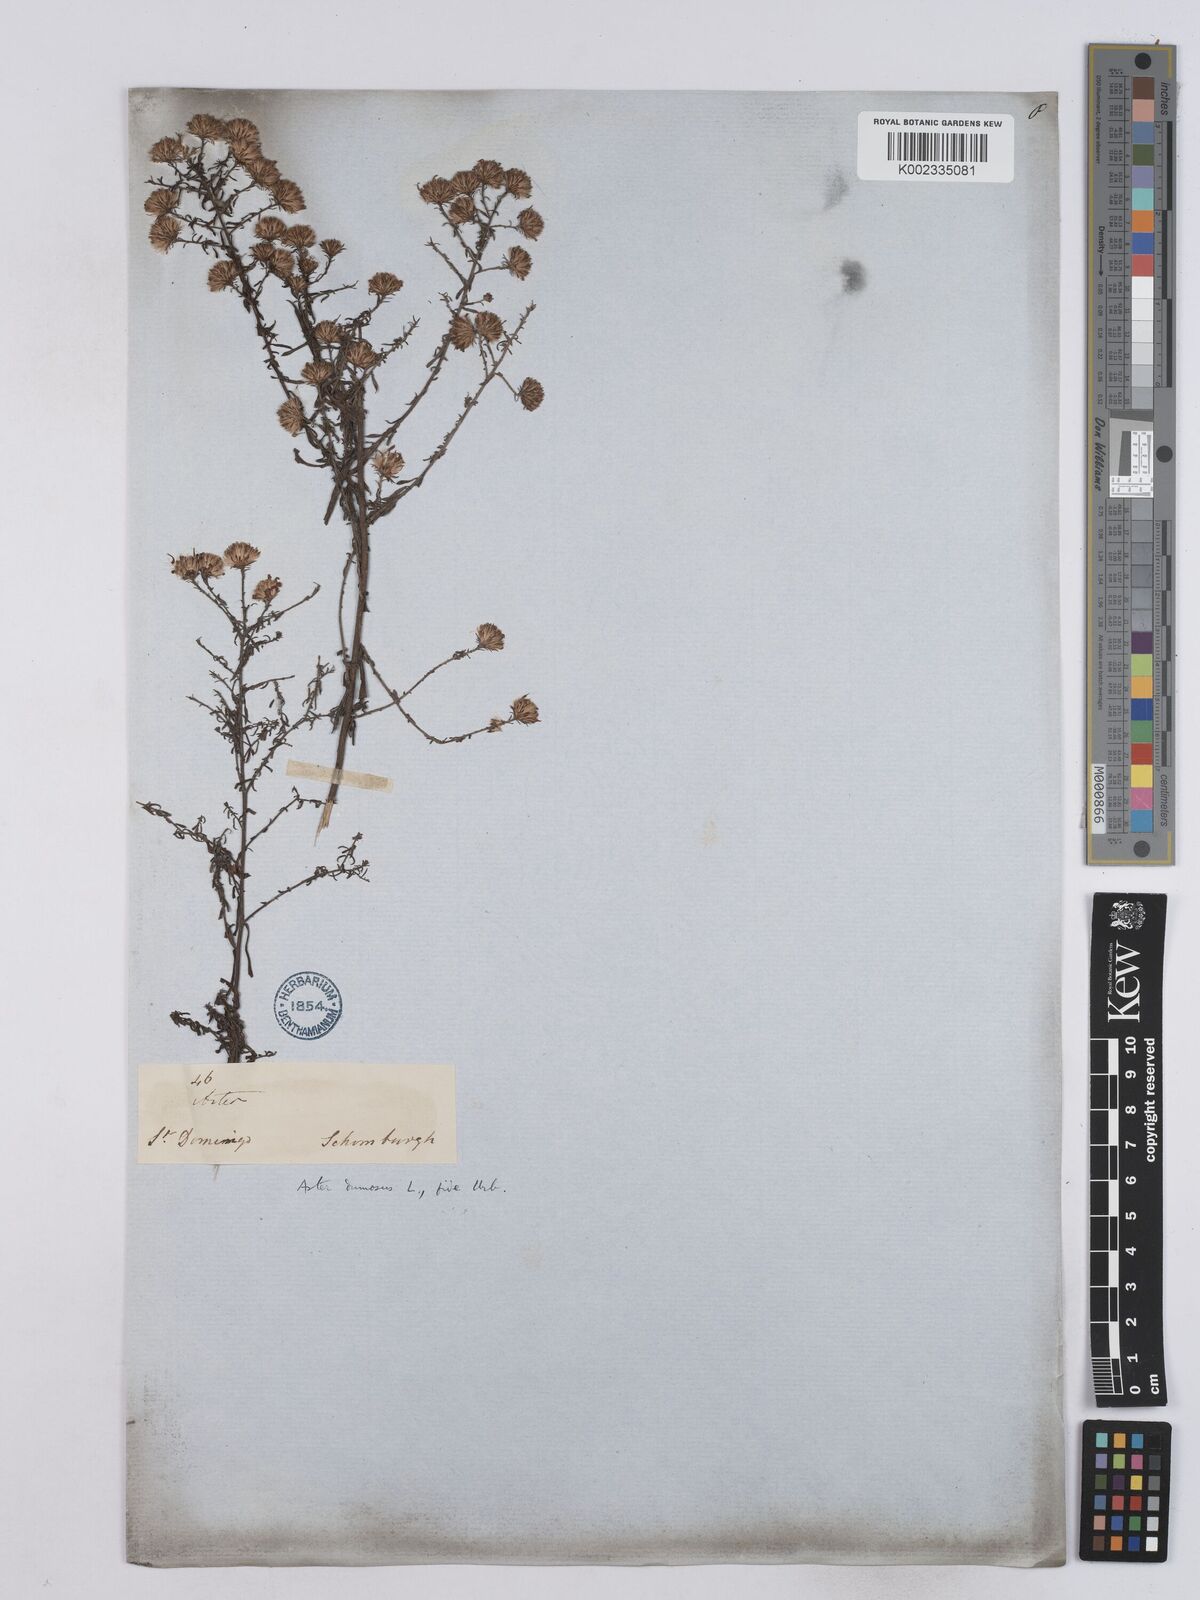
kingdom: Plantae
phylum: Tracheophyta
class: Magnoliopsida
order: Asterales
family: Asteraceae
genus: Symphyotrichum
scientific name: Symphyotrichum dumosum
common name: Bushy aster
